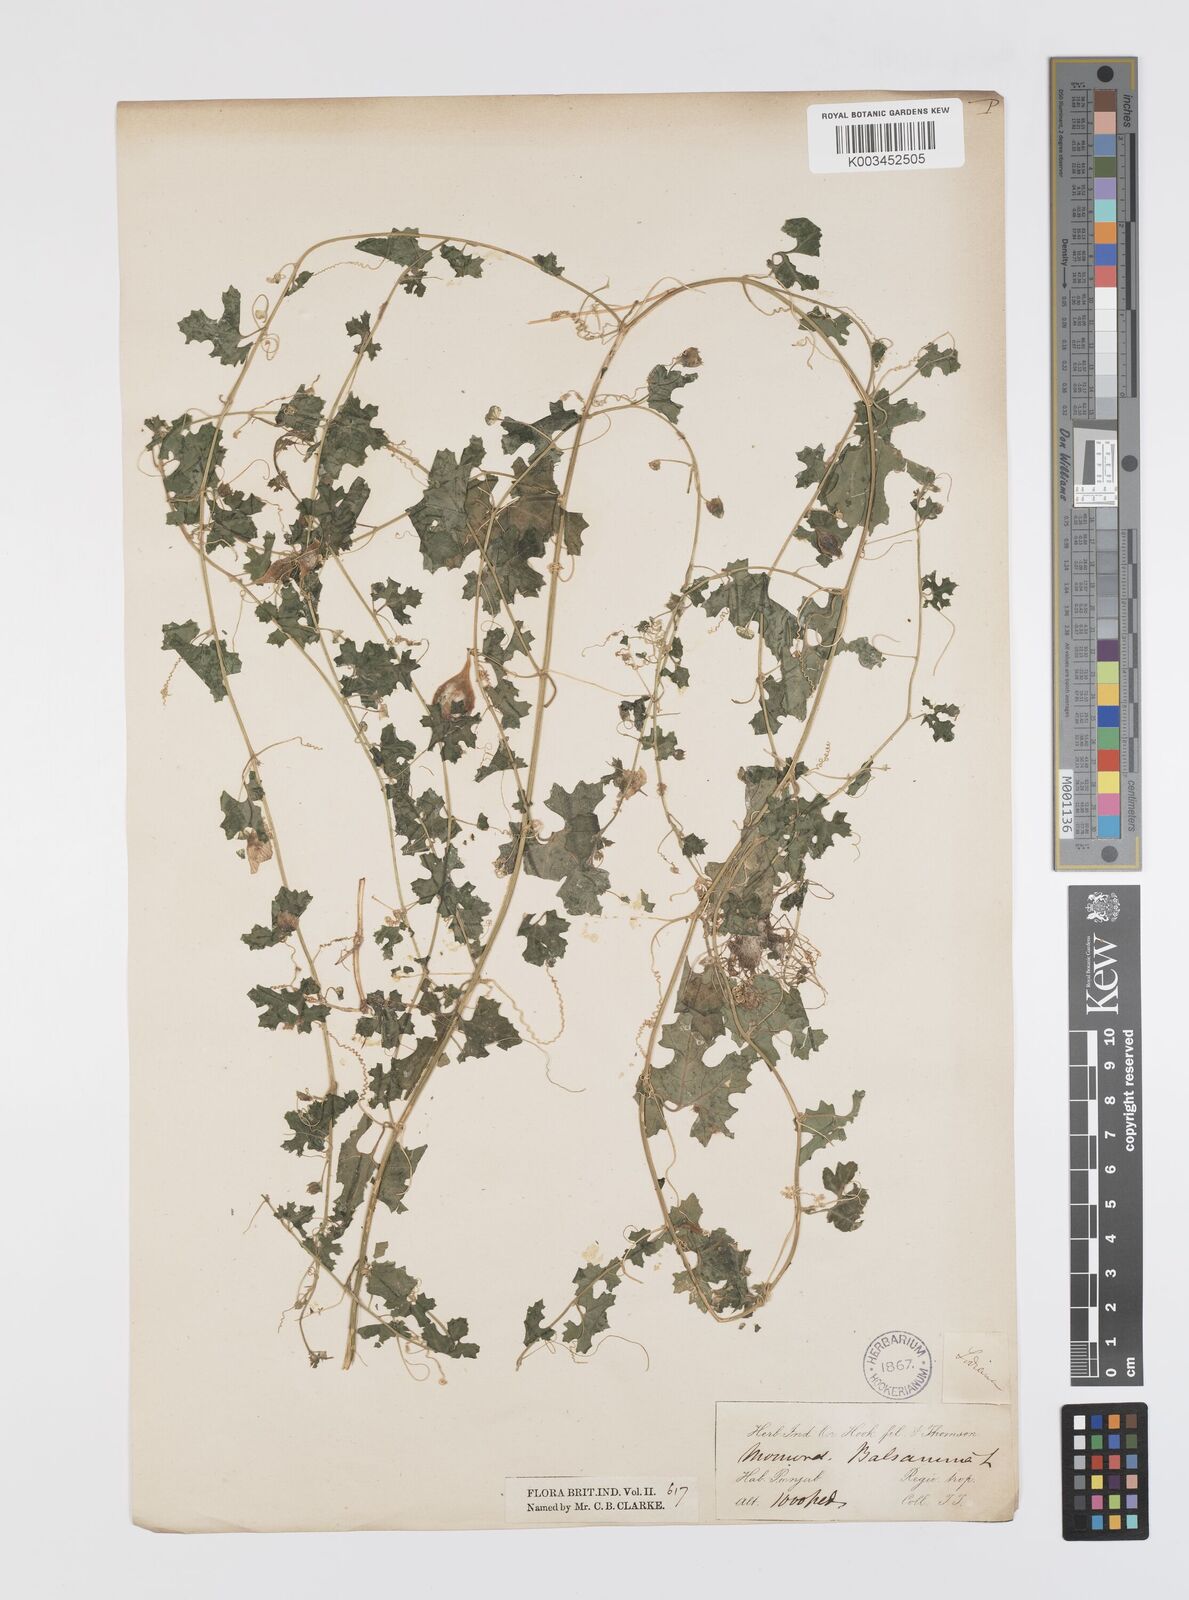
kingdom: Plantae
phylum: Tracheophyta
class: Magnoliopsida
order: Cucurbitales
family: Cucurbitaceae
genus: Momordica
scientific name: Momordica balsamina
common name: Southern balsampear
